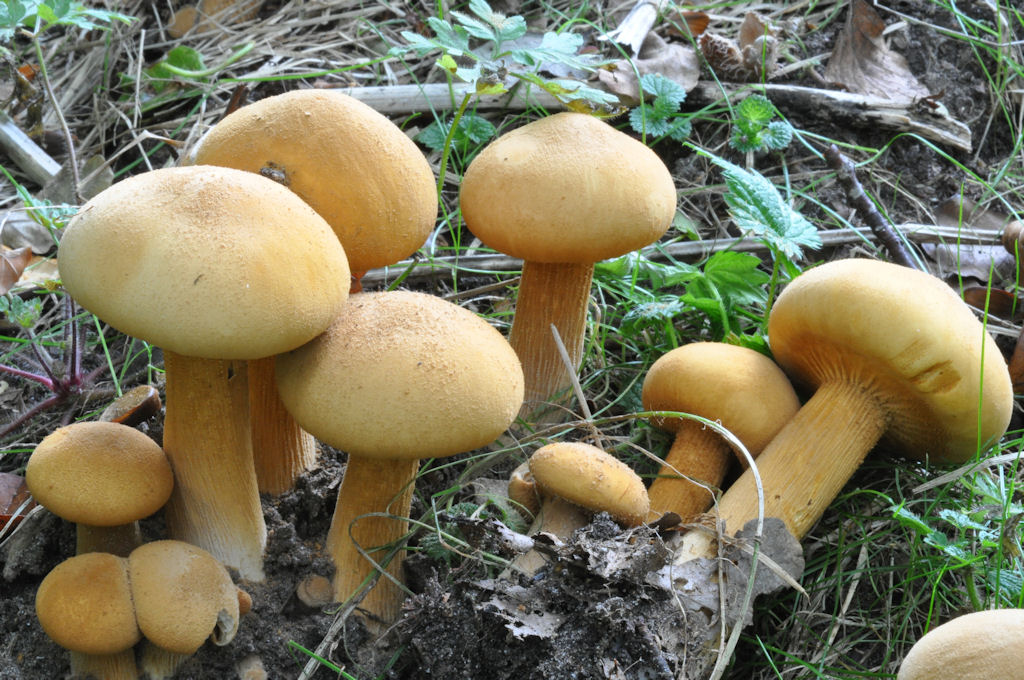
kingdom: Fungi
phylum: Basidiomycota
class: Agaricomycetes
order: Agaricales
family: Tricholomataceae
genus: Phaeolepiota
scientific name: Phaeolepiota aurea
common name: gyldenhat
